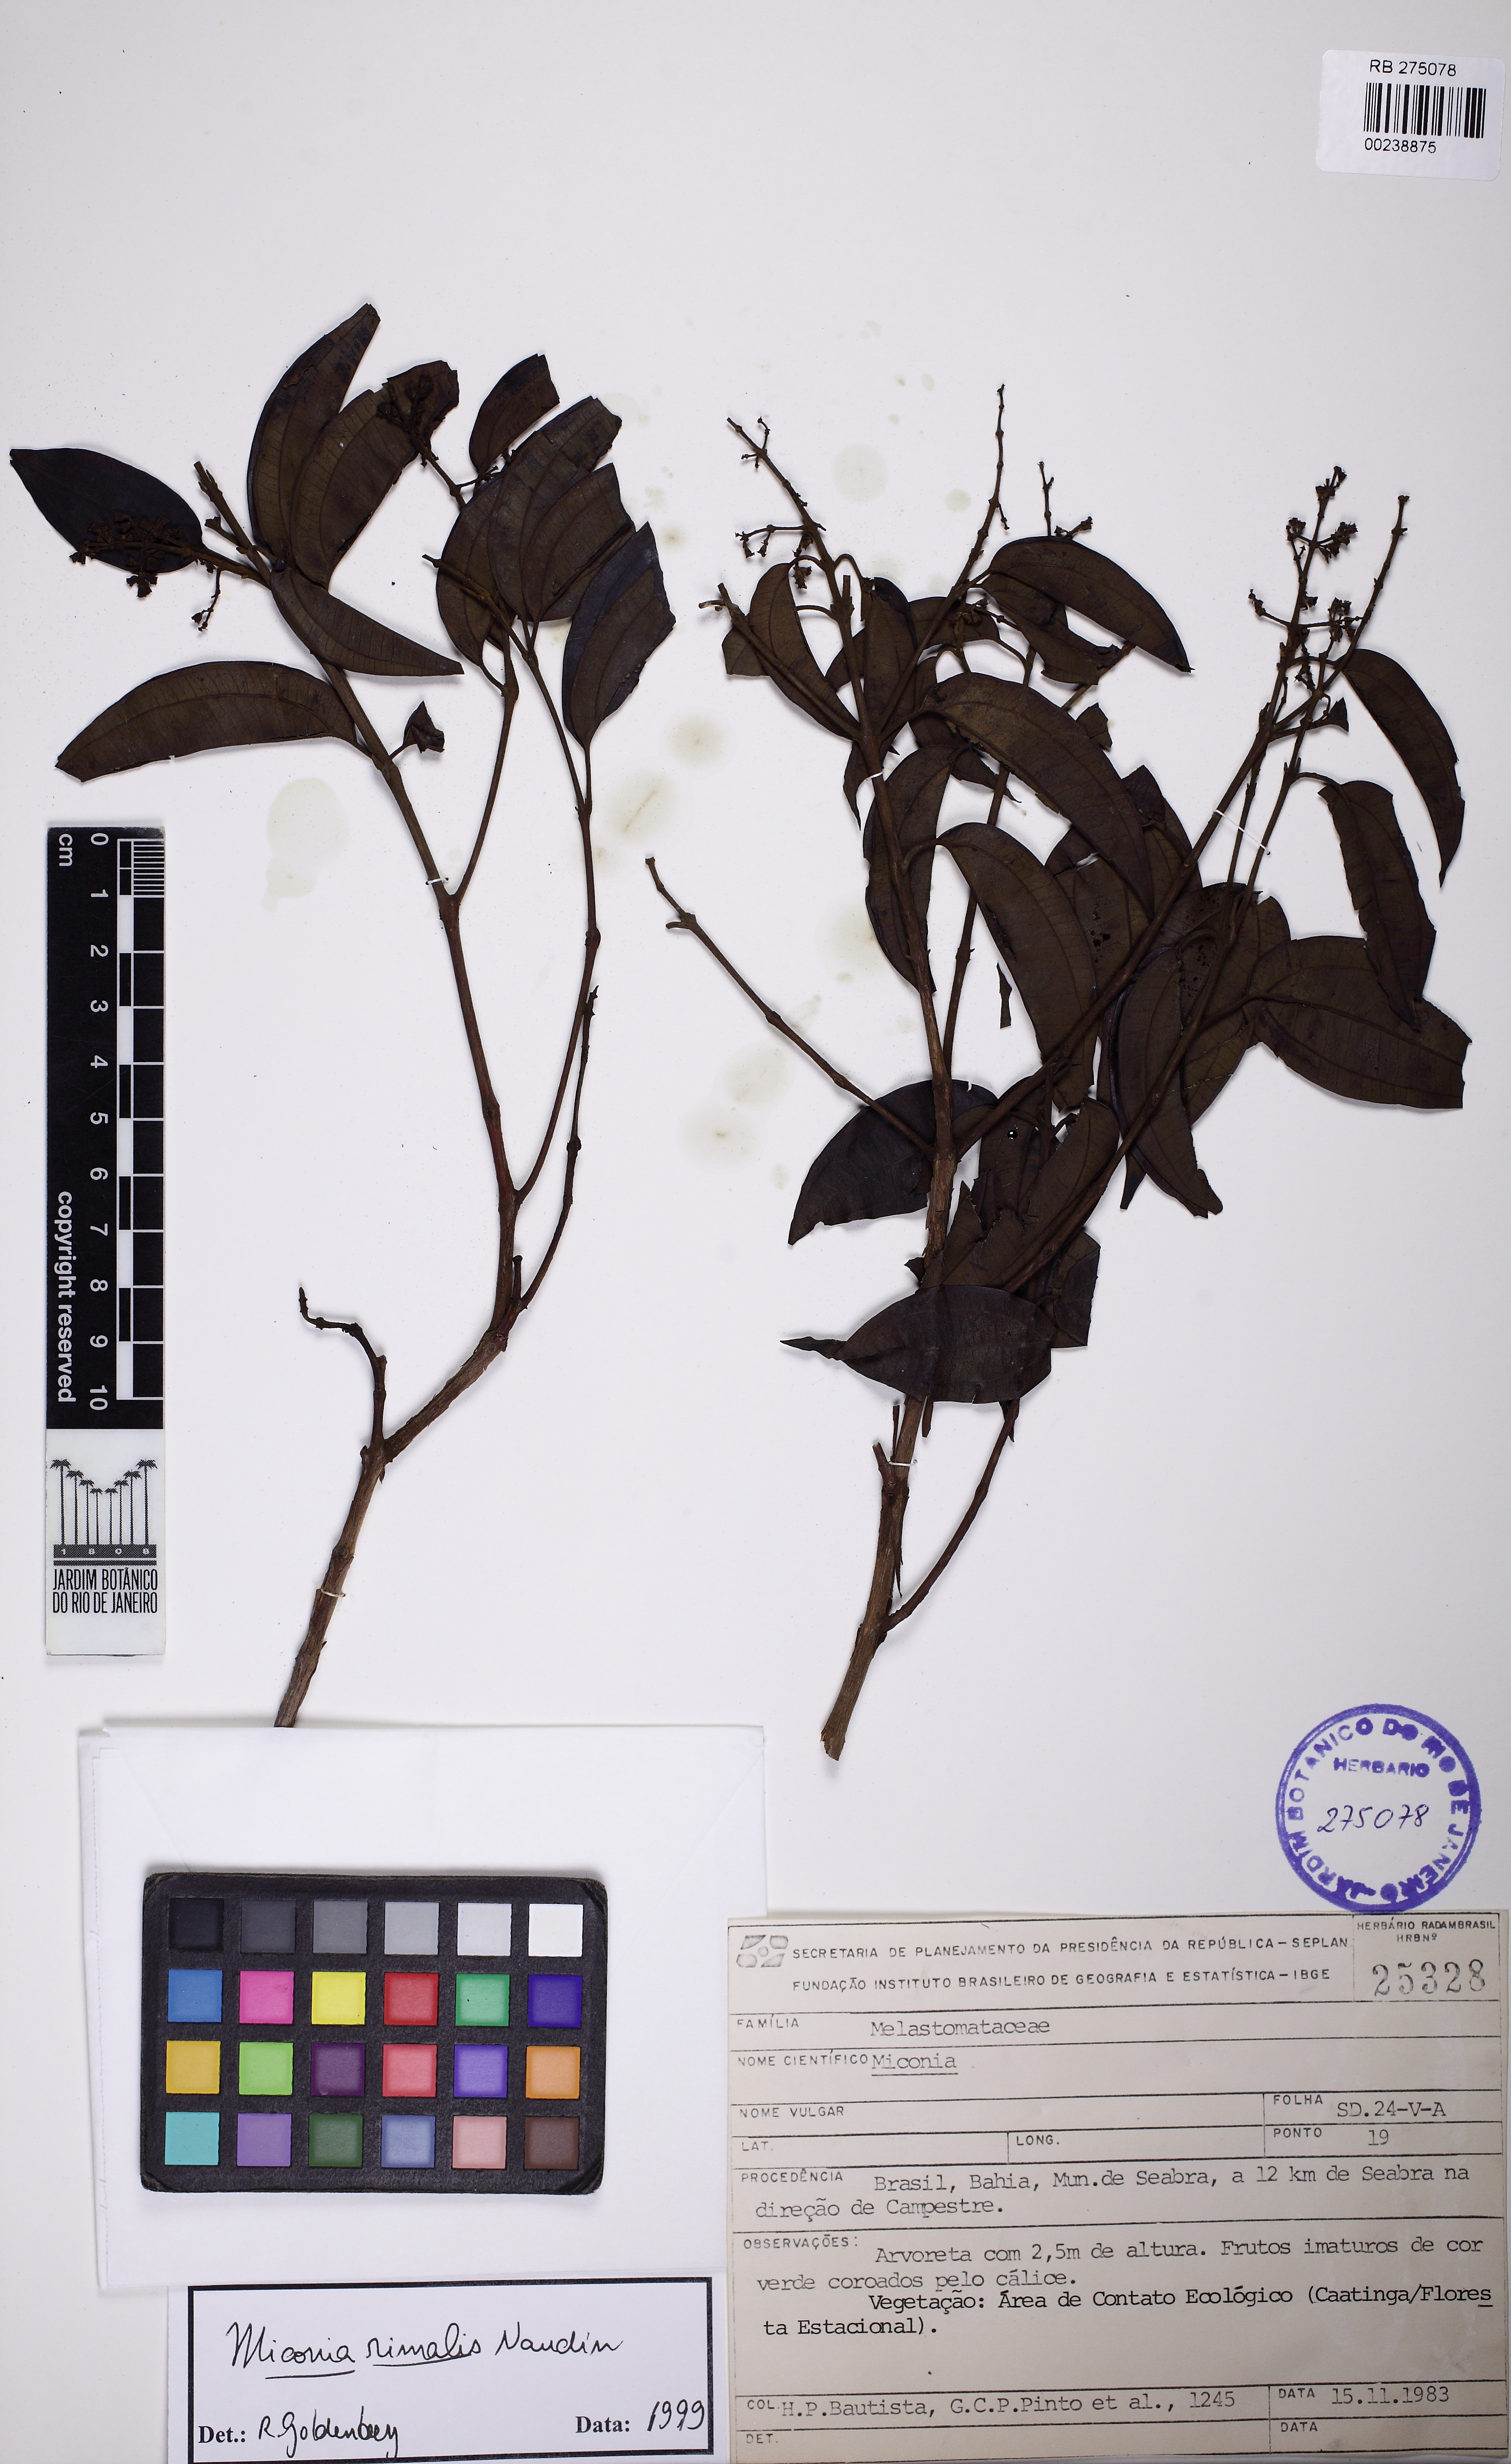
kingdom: Plantae
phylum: Tracheophyta
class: Magnoliopsida
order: Myrtales
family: Melastomataceae
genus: Miconia
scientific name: Miconia rimalis
